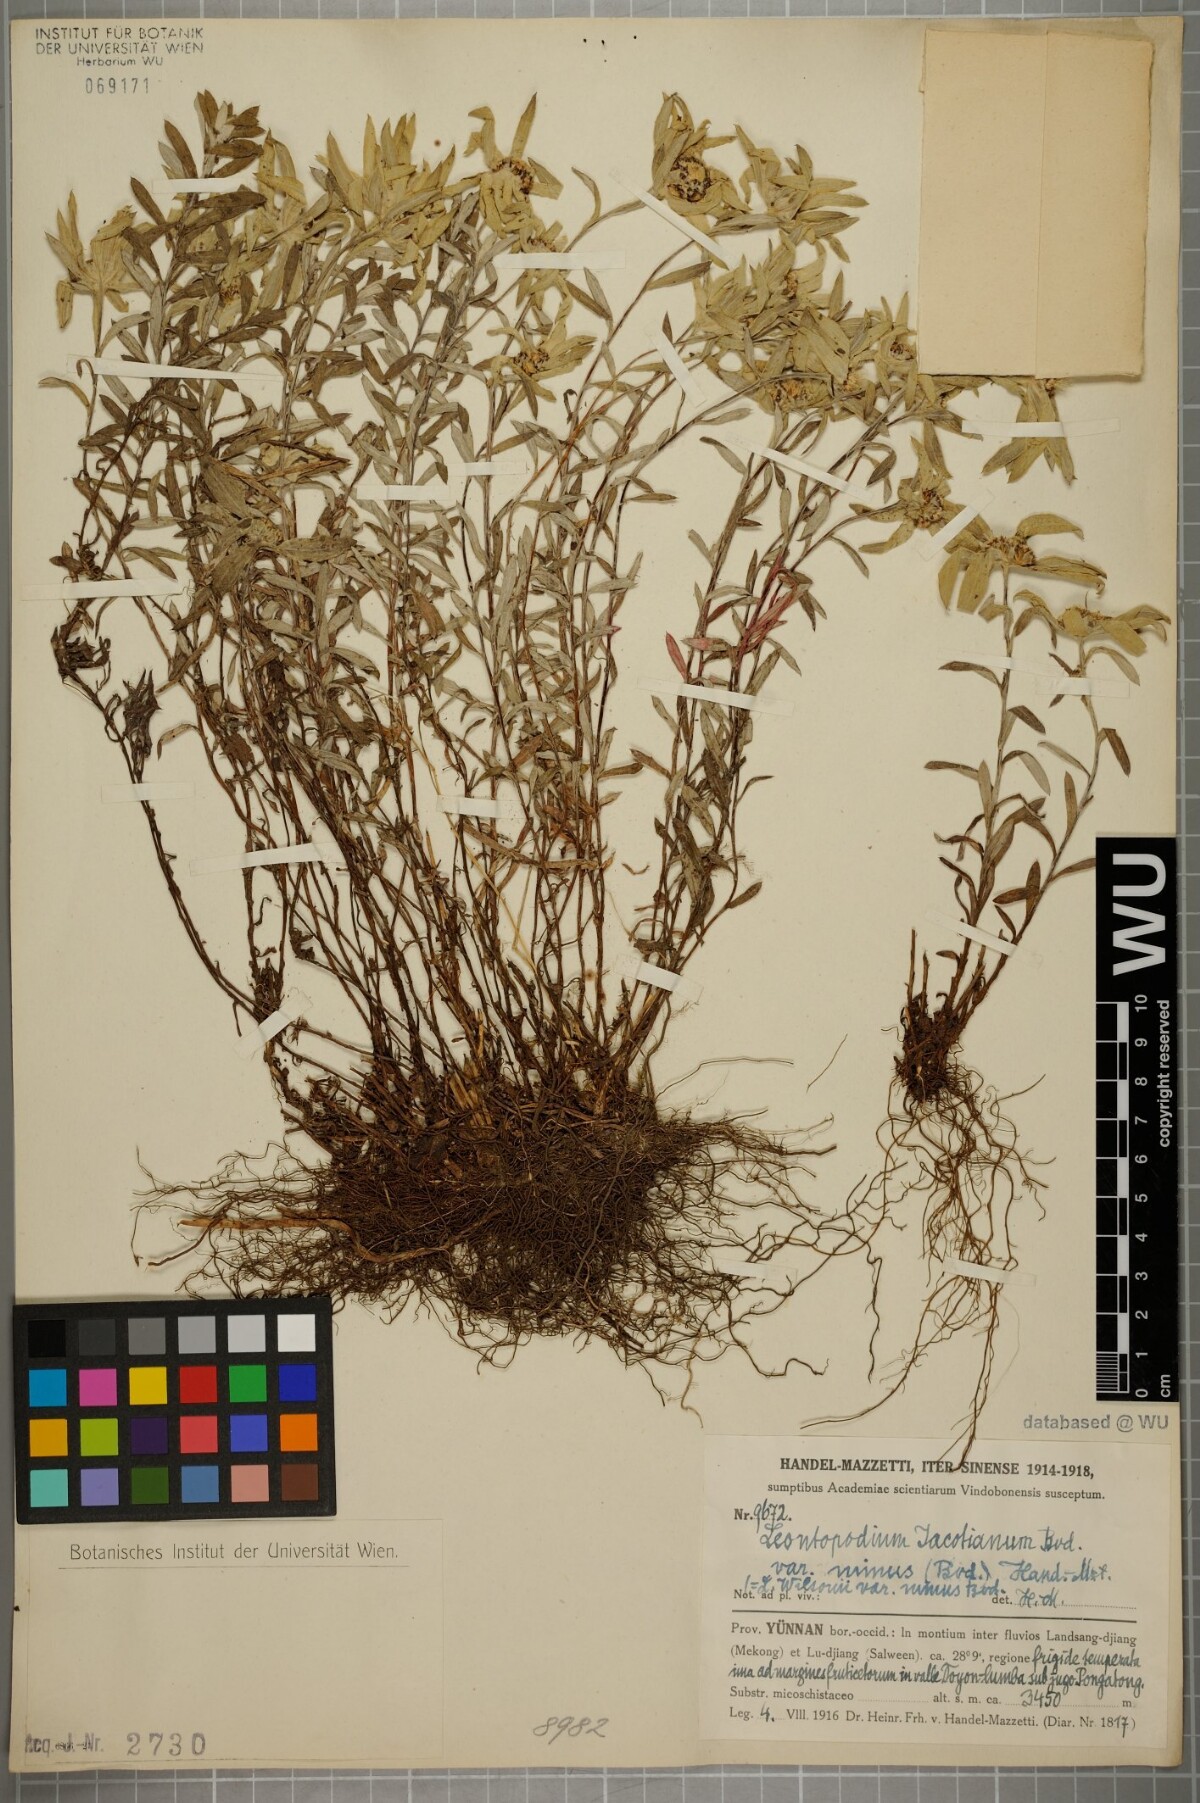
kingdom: Plantae
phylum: Tracheophyta
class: Magnoliopsida
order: Asterales
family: Asteraceae
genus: Leontopodium
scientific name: Leontopodium caespitosum
